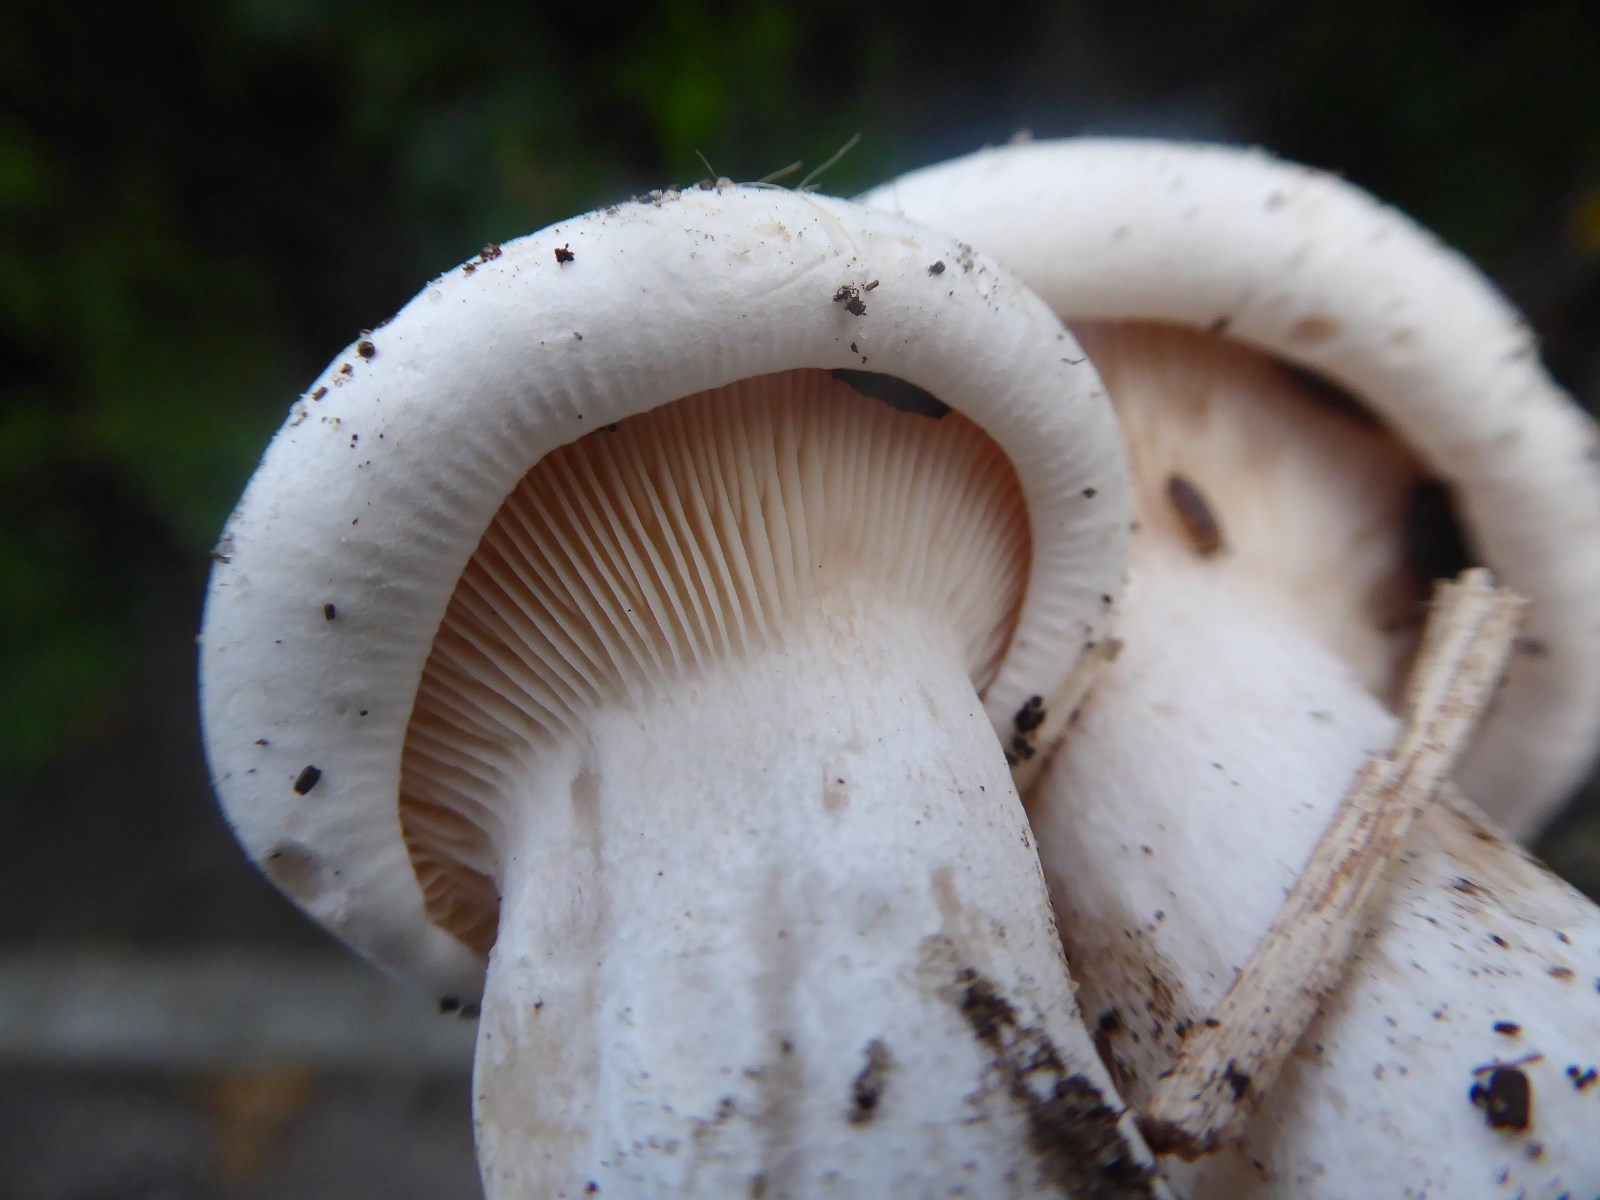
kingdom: Fungi
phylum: Basidiomycota
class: Agaricomycetes
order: Agaricales
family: Tricholomataceae
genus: Aspropaxillus
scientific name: Aspropaxillus giganteus
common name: kæmpe-tragtridderhat
